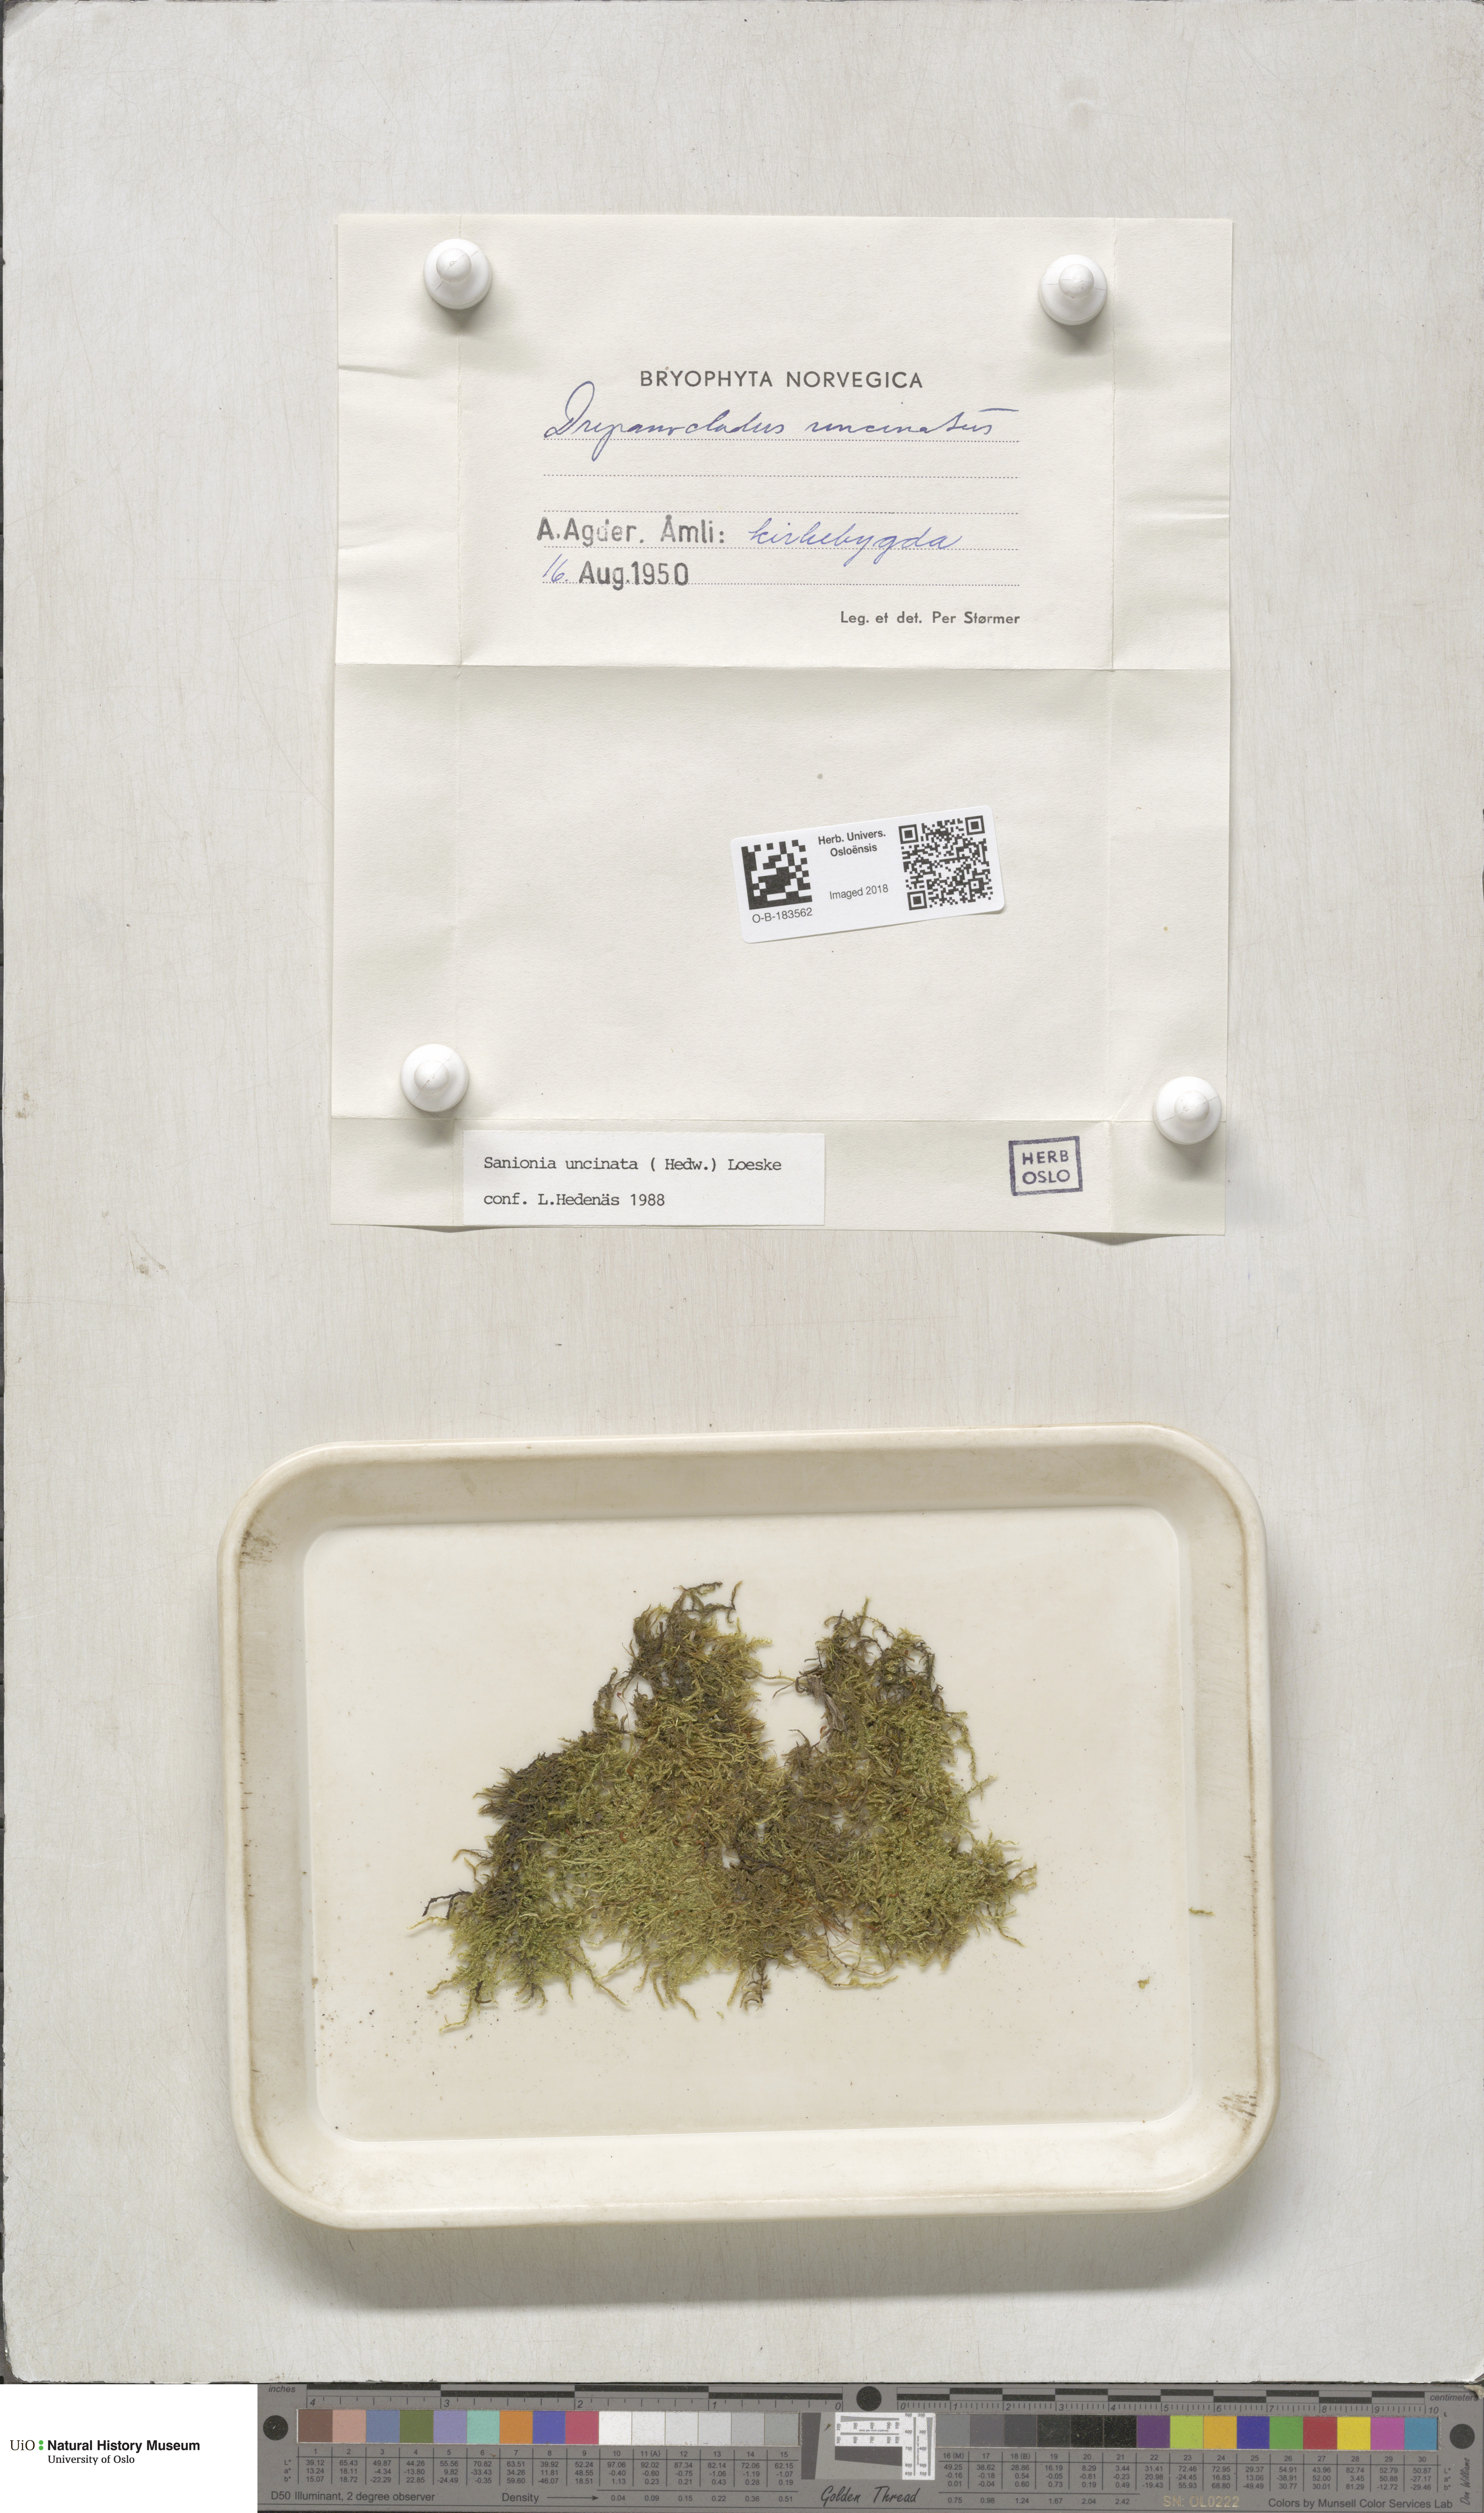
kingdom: Plantae
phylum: Bryophyta
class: Bryopsida
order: Hypnales
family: Scorpidiaceae
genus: Sanionia
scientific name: Sanionia uncinata
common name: Sickle moss
